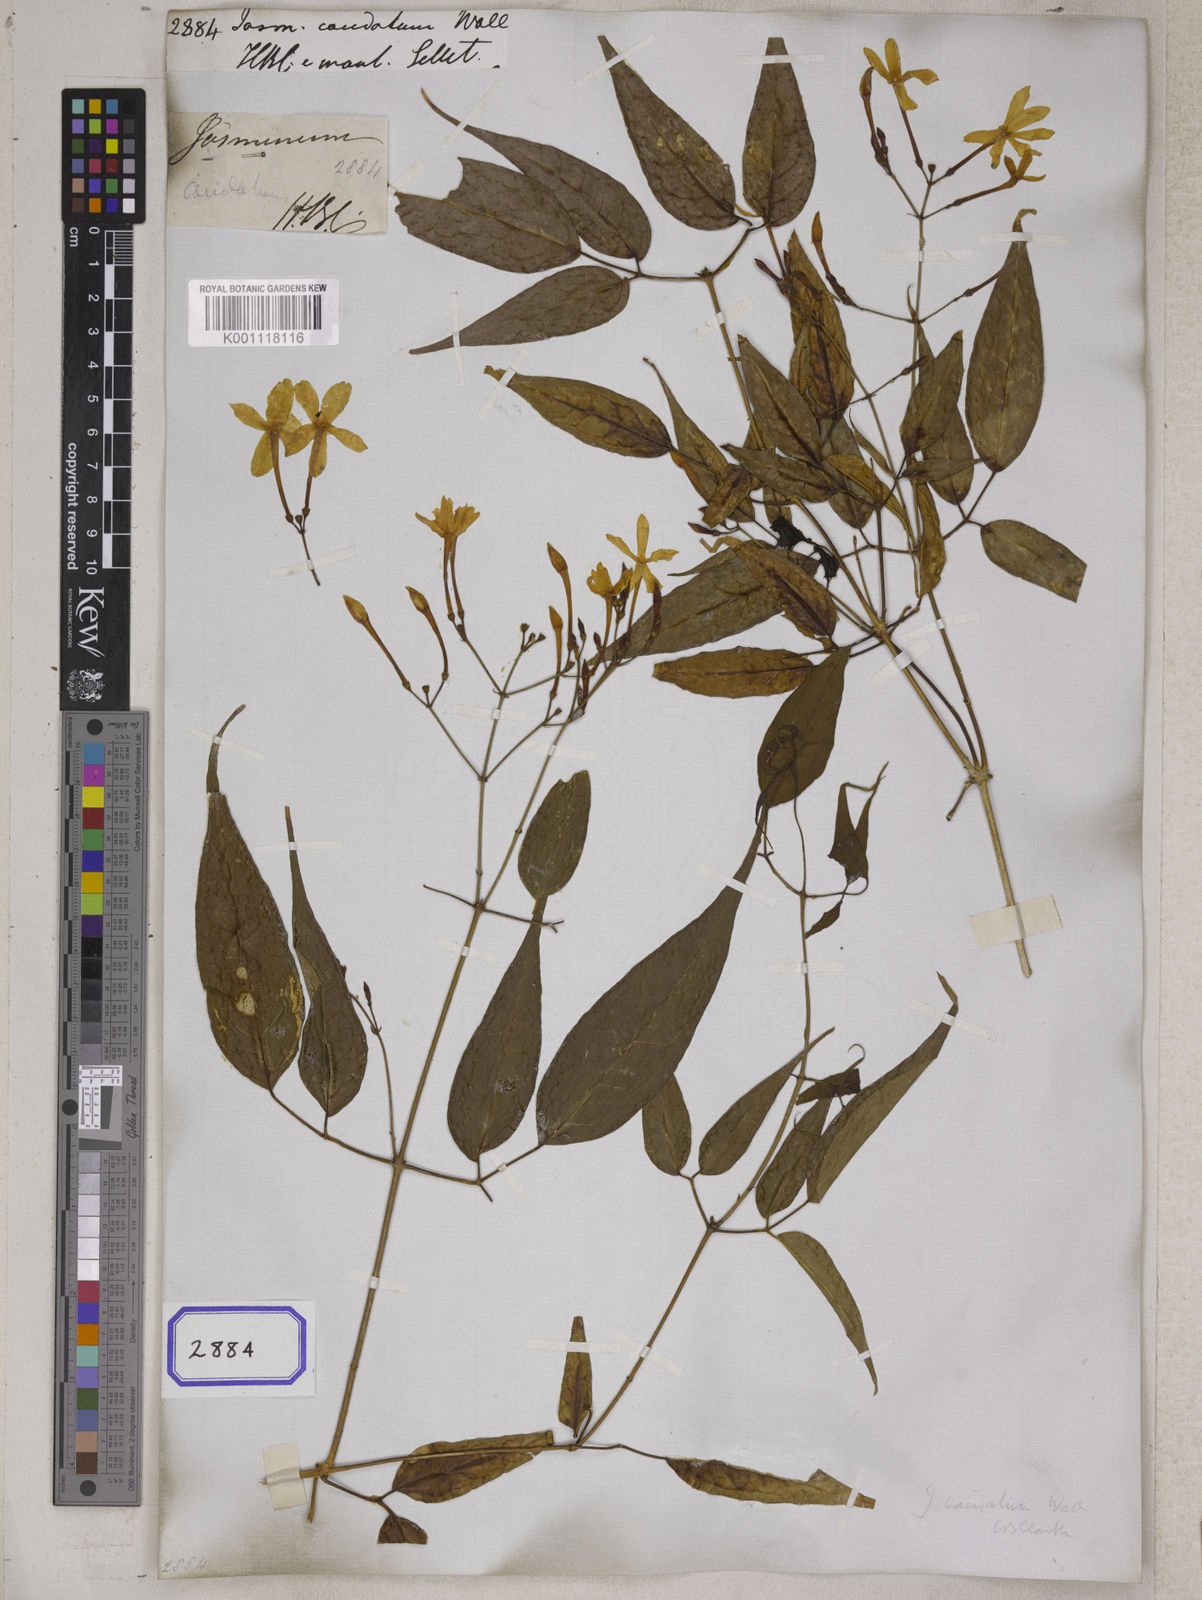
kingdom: Plantae
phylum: Tracheophyta
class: Magnoliopsida
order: Lamiales
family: Oleaceae
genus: Jasminum
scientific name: Jasminum
